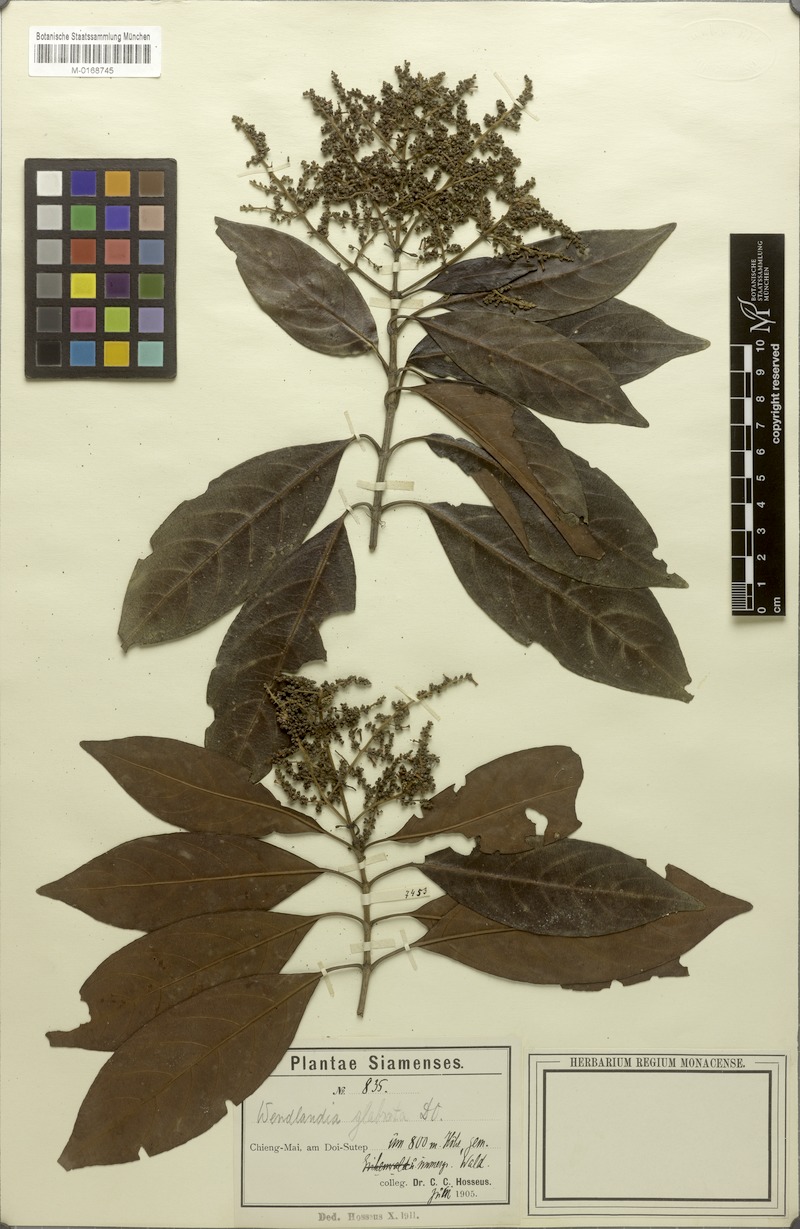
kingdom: Plantae
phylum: Tracheophyta
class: Magnoliopsida
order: Gentianales
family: Rubiaceae
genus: Wendlandia
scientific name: Wendlandia glabrata
